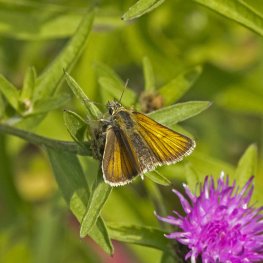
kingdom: Animalia
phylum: Arthropoda
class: Insecta
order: Lepidoptera
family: Hesperiidae
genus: Thymelicus
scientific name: Thymelicus lineola
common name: European Skipper
